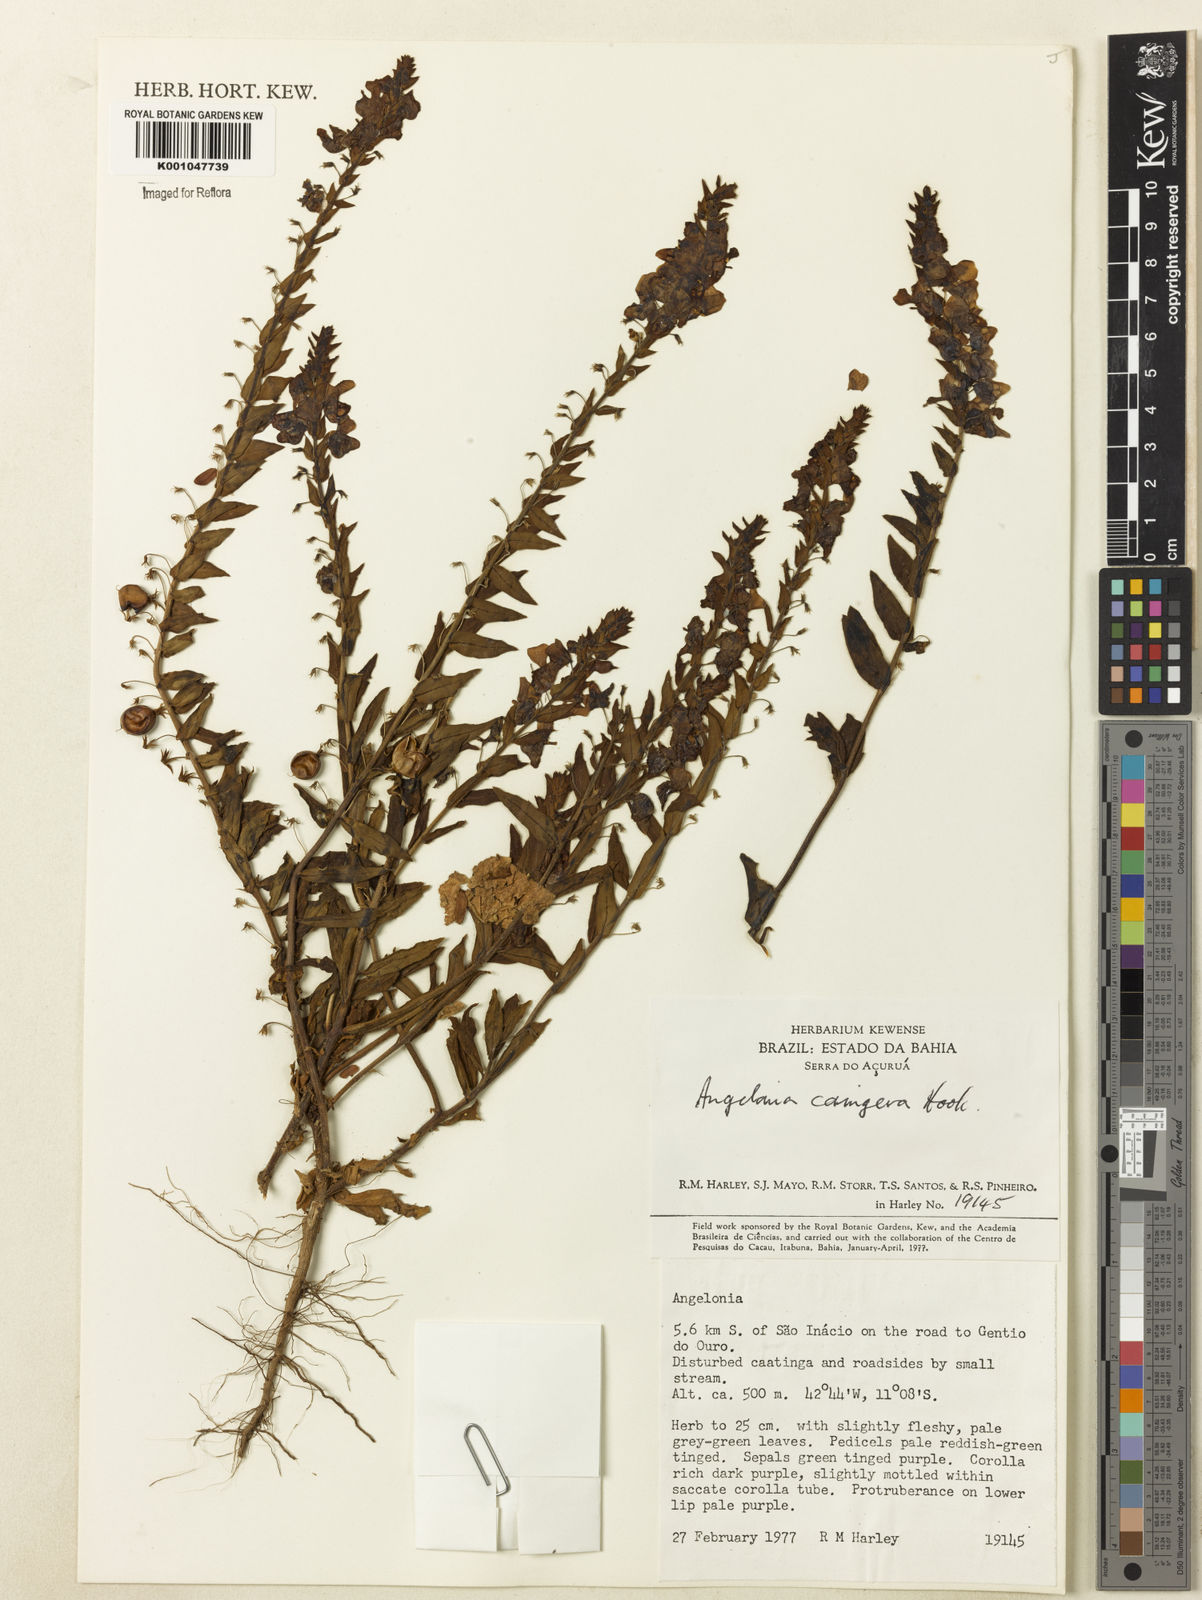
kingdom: Plantae
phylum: Tracheophyta
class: Magnoliopsida
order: Lamiales
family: Plantaginaceae
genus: Angelonia
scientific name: Angelonia cornigera
